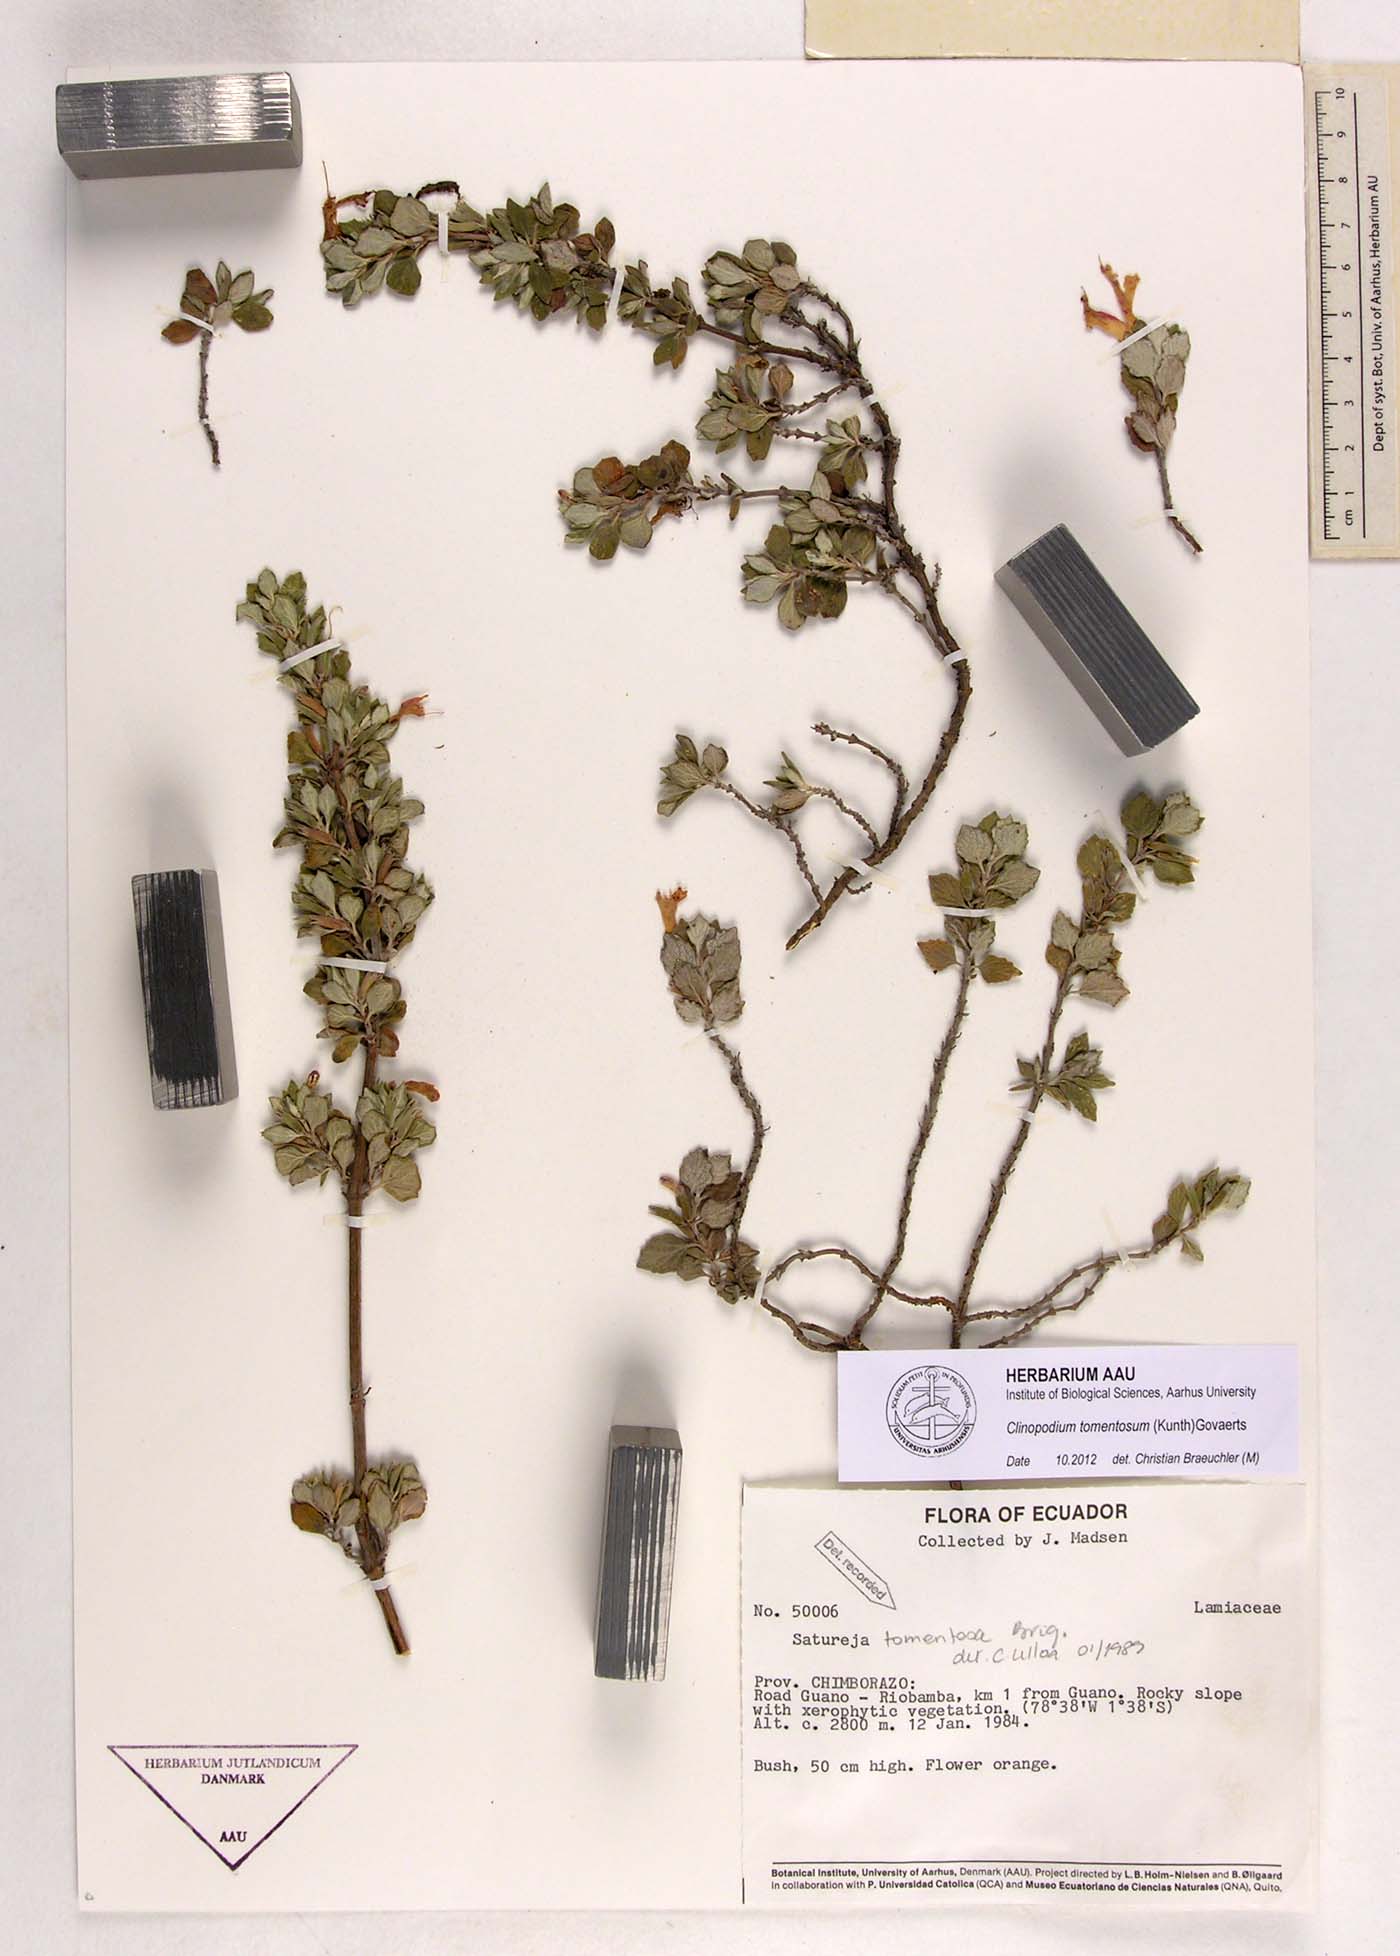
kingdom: Plantae
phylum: Tracheophyta
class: Magnoliopsida
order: Lamiales
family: Lamiaceae
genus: Clinopodium
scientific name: Clinopodium tomentosum
